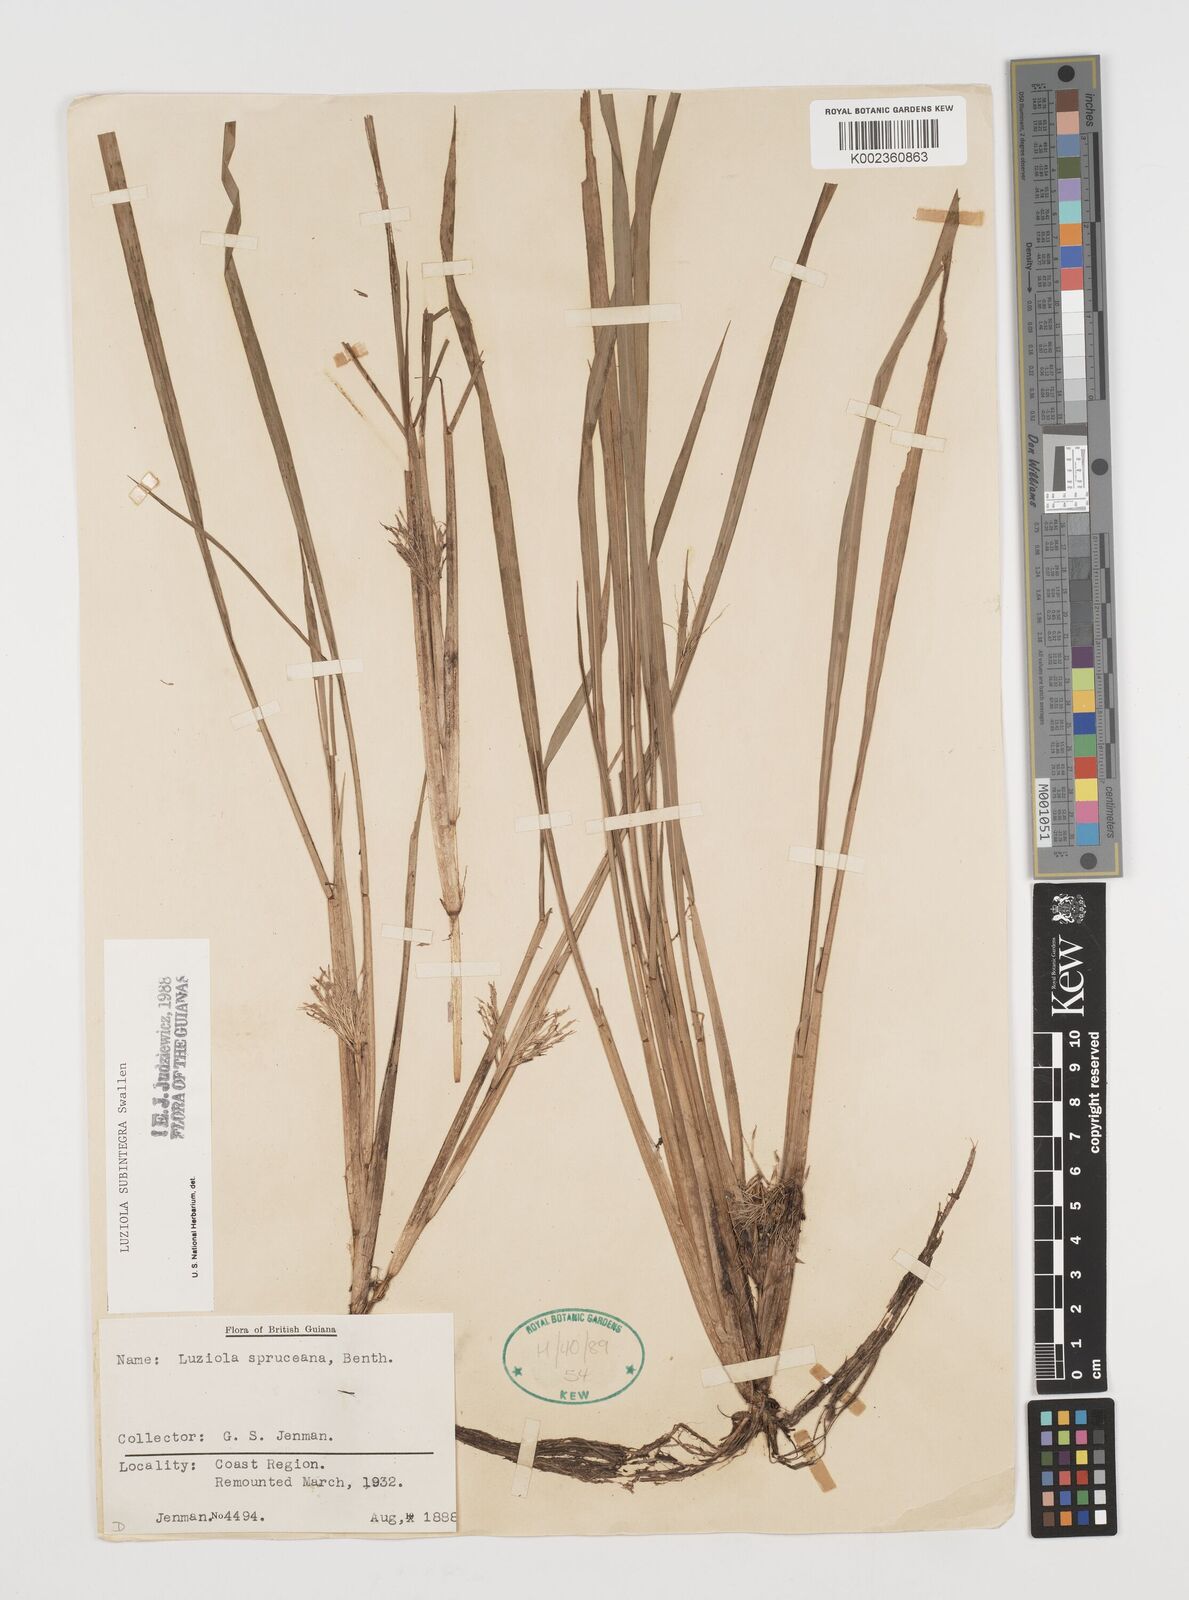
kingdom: Plantae
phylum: Tracheophyta
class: Liliopsida
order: Poales
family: Poaceae
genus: Luziola
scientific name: Luziola subintegra
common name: Large watergrass
